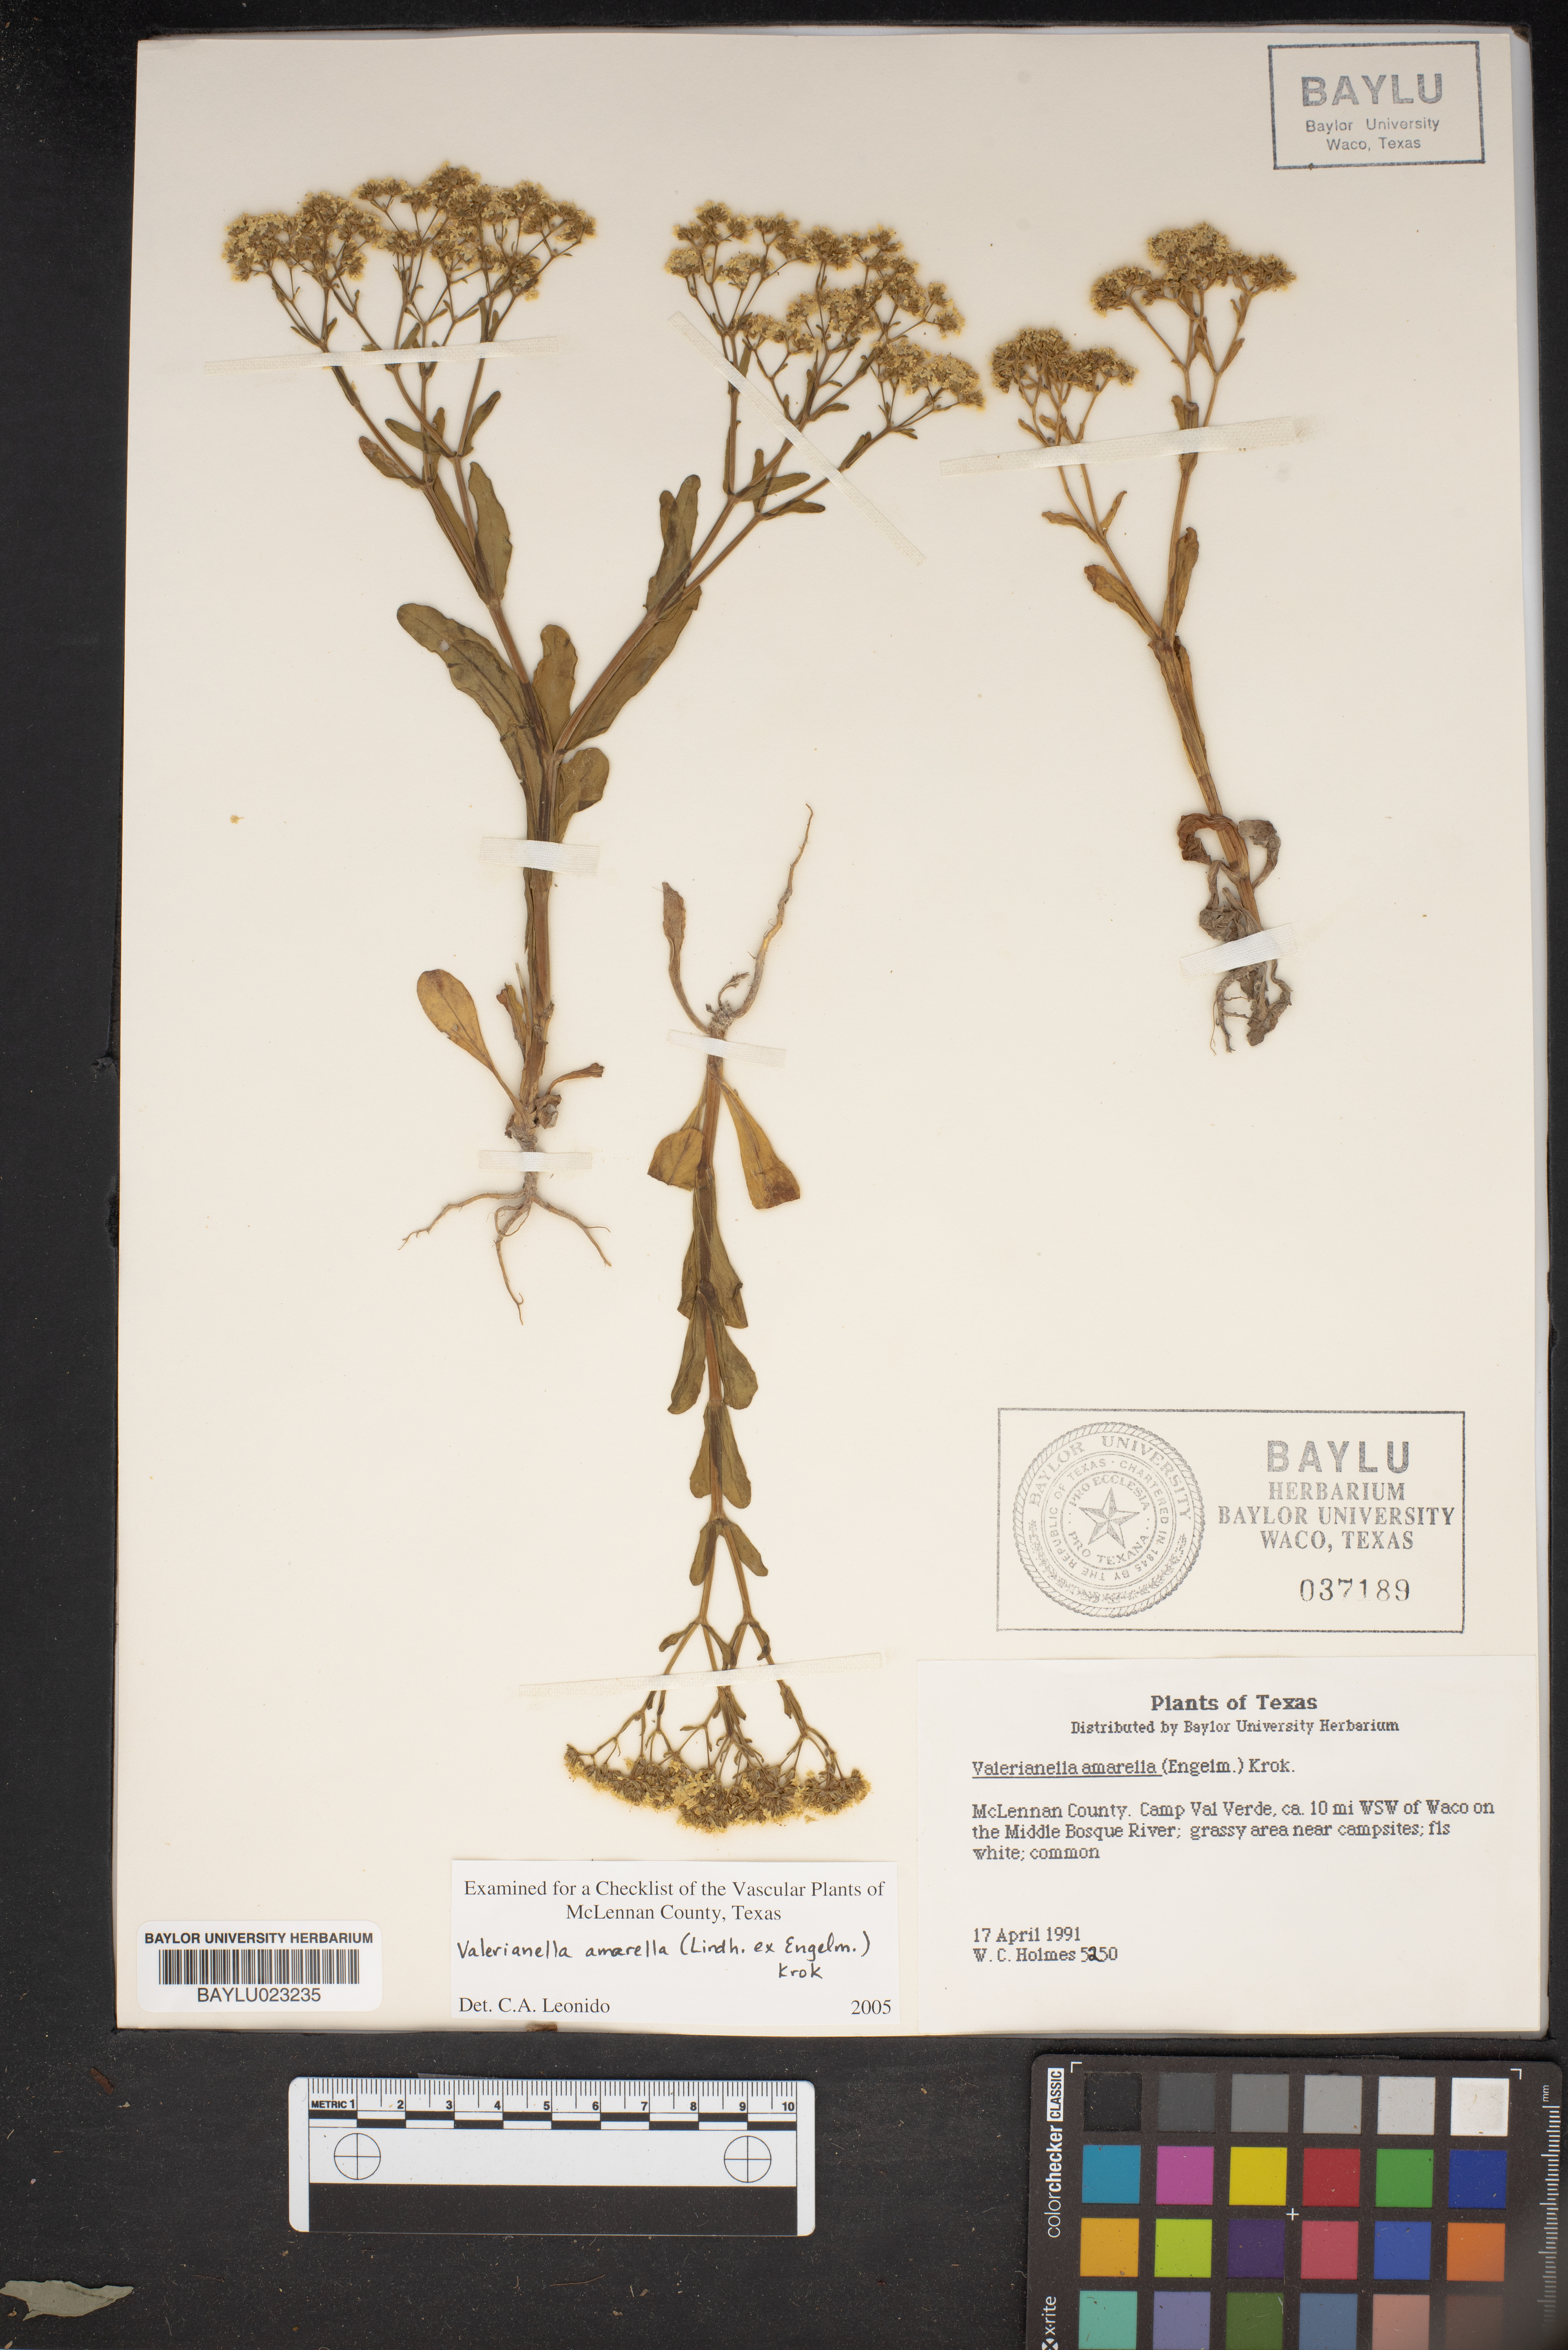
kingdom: Plantae
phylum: Tracheophyta
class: Magnoliopsida
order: Dipsacales
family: Caprifoliaceae
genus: Valerianella
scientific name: Valerianella amarella
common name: Hariy cornsalad
